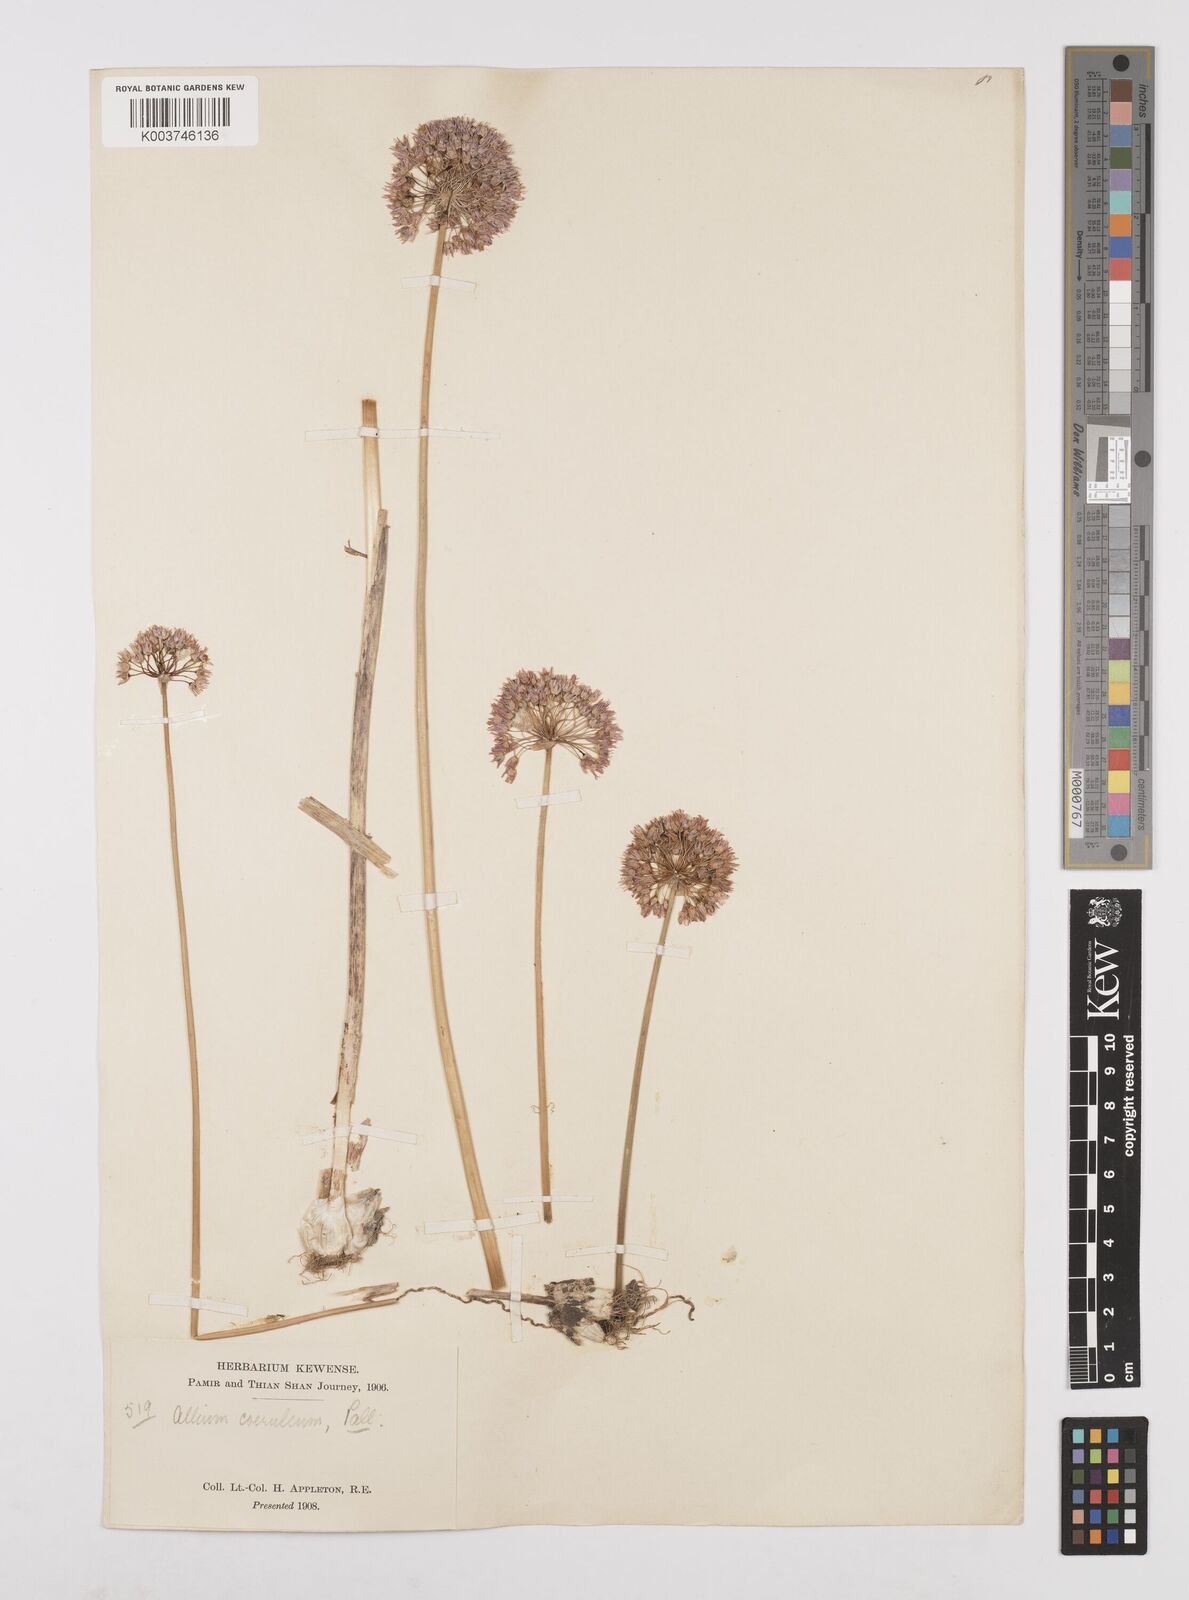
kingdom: Plantae
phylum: Tracheophyta
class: Liliopsida
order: Asparagales
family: Amaryllidaceae
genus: Allium
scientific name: Allium caeruleum
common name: Blue-of-the-heavens
